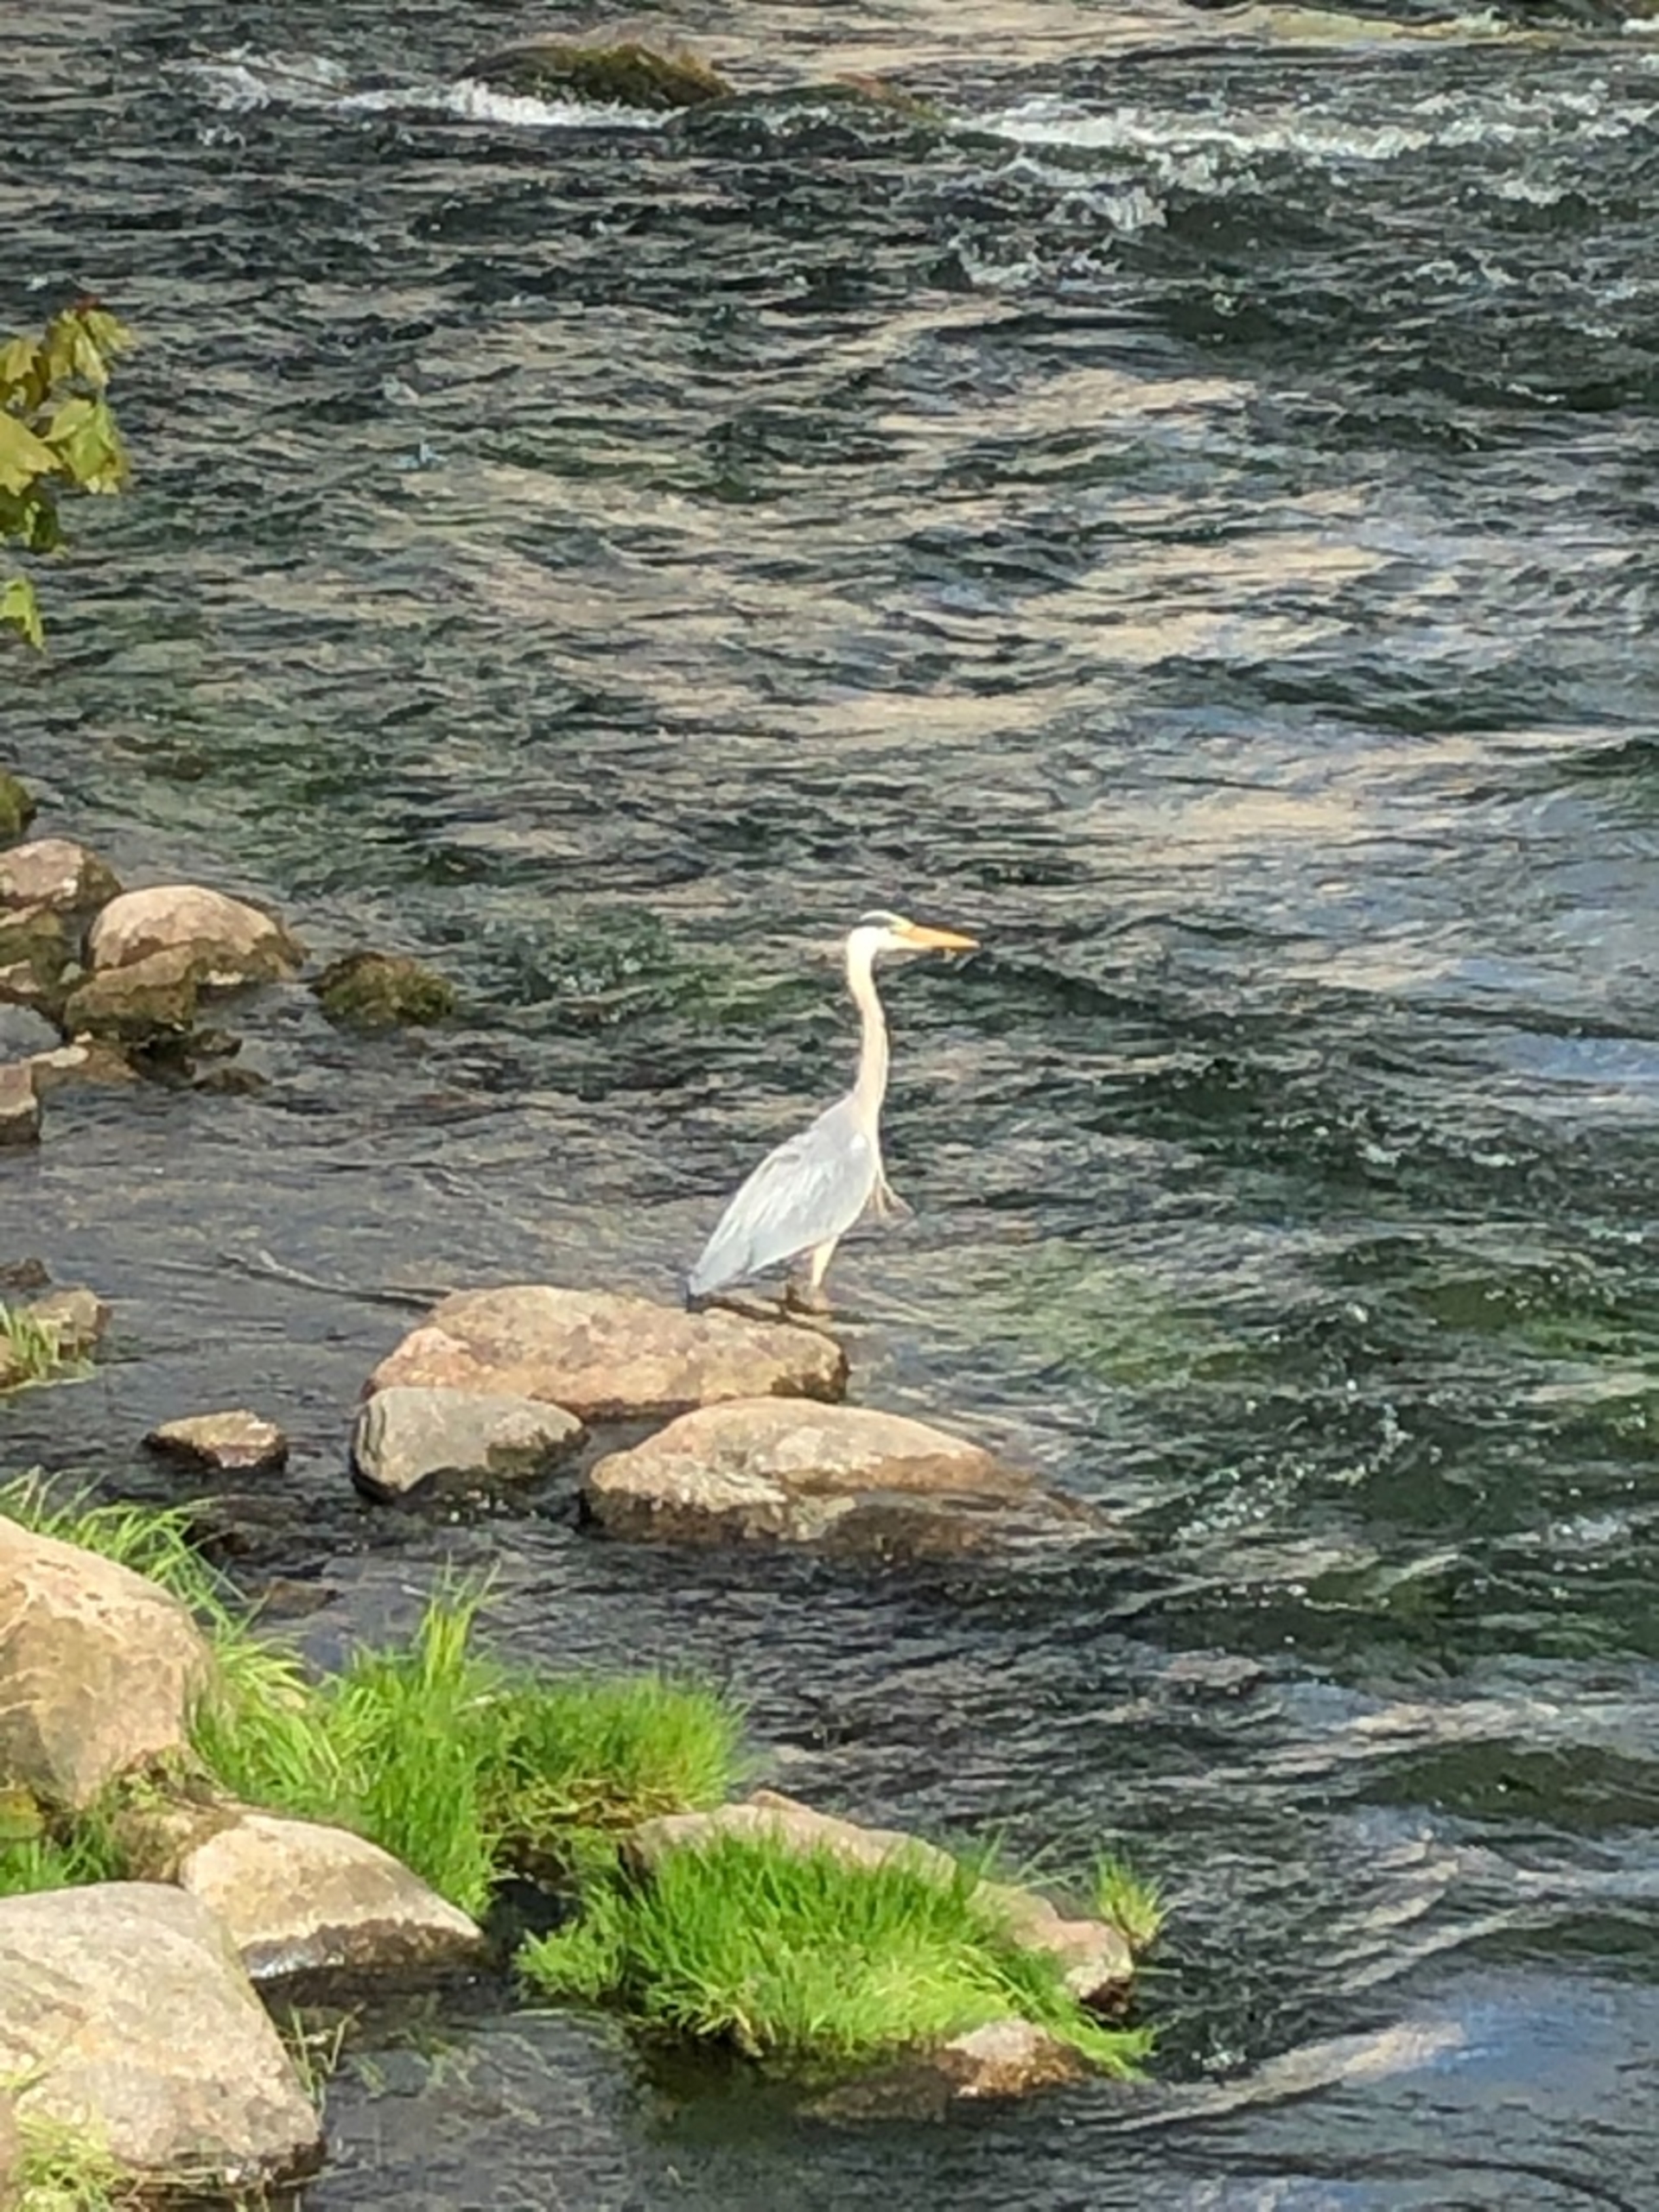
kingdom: Animalia
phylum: Chordata
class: Aves
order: Pelecaniformes
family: Ardeidae
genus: Ardea
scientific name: Ardea cinerea
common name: Fiskehejre
